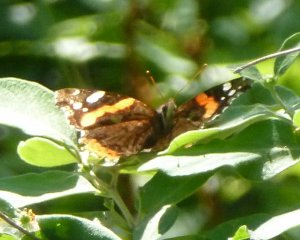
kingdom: Animalia
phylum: Arthropoda
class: Insecta
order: Lepidoptera
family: Nymphalidae
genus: Vanessa
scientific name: Vanessa atalanta
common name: Red Admiral
